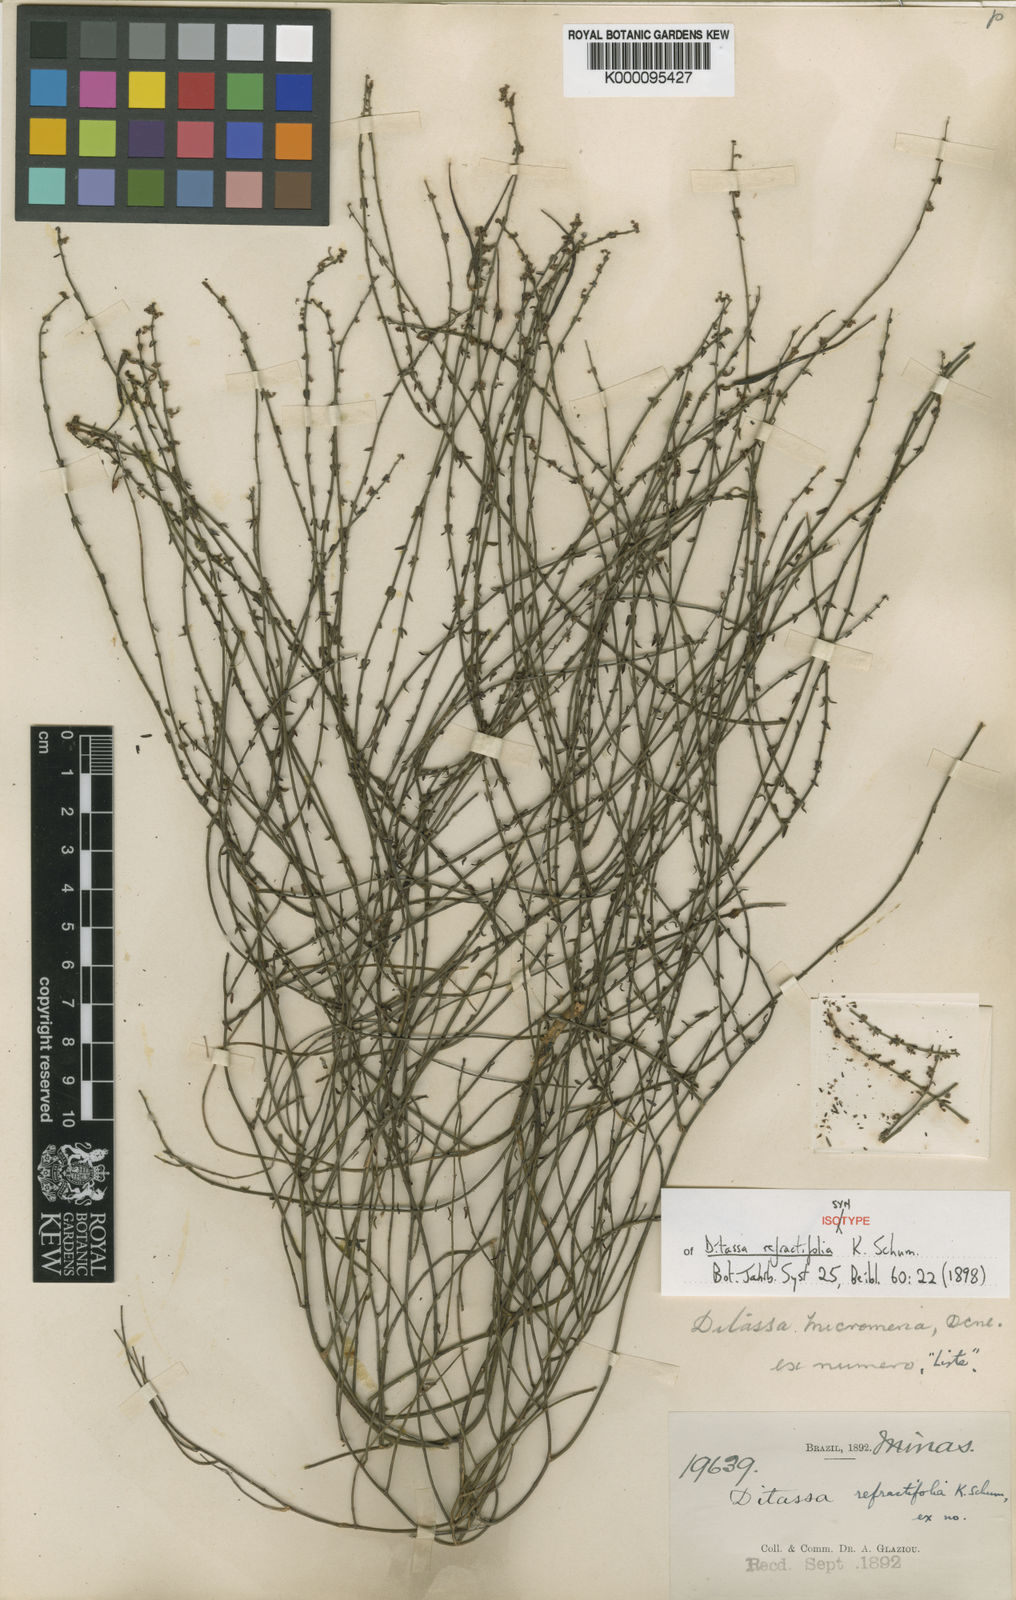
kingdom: Plantae
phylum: Tracheophyta
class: Magnoliopsida
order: Gentianales
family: Apocynaceae
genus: Minaria
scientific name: Minaria refractifolia
